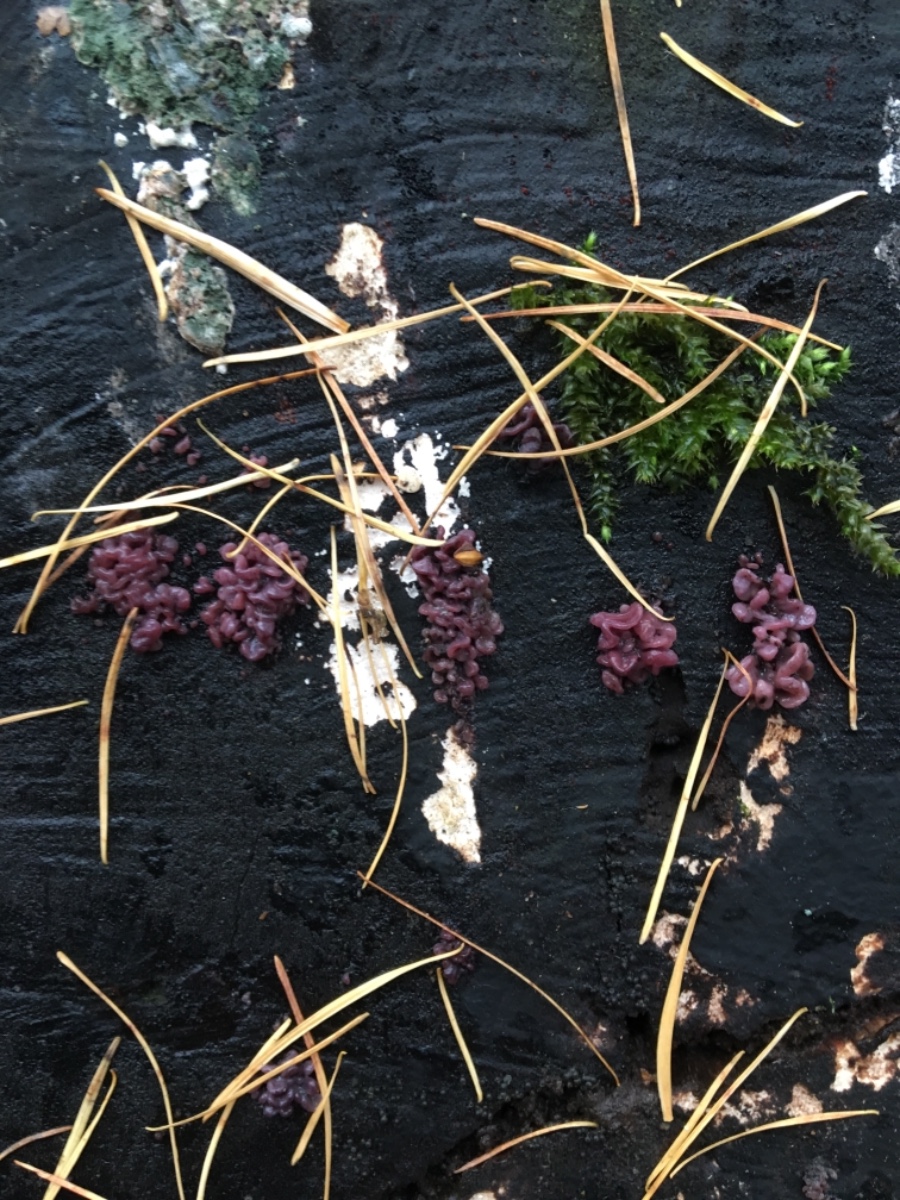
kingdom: Fungi
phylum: Ascomycota
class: Leotiomycetes
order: Helotiales
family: Gelatinodiscaceae
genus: Ascocoryne
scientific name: Ascocoryne sarcoides
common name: rødlilla sejskive
